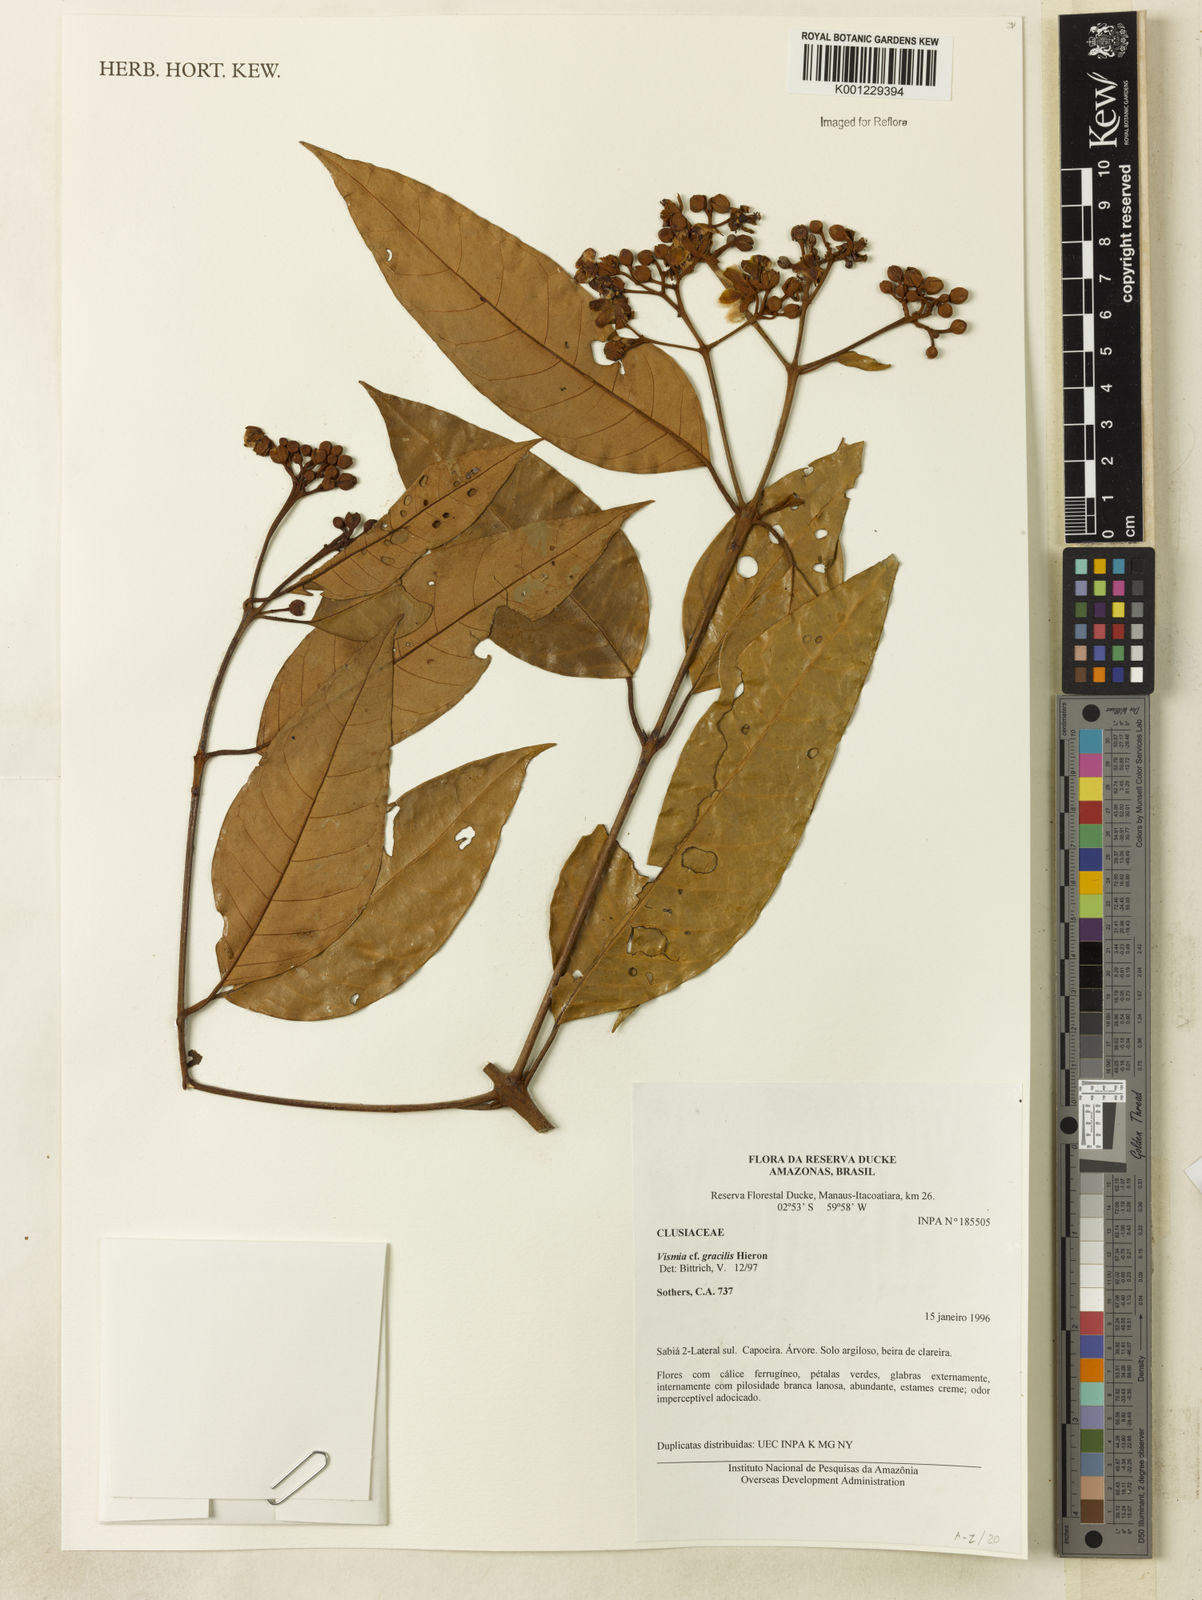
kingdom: Plantae
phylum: Tracheophyta
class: Magnoliopsida
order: Malpighiales
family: Hypericaceae
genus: Vismia
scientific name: Vismia gracilis
